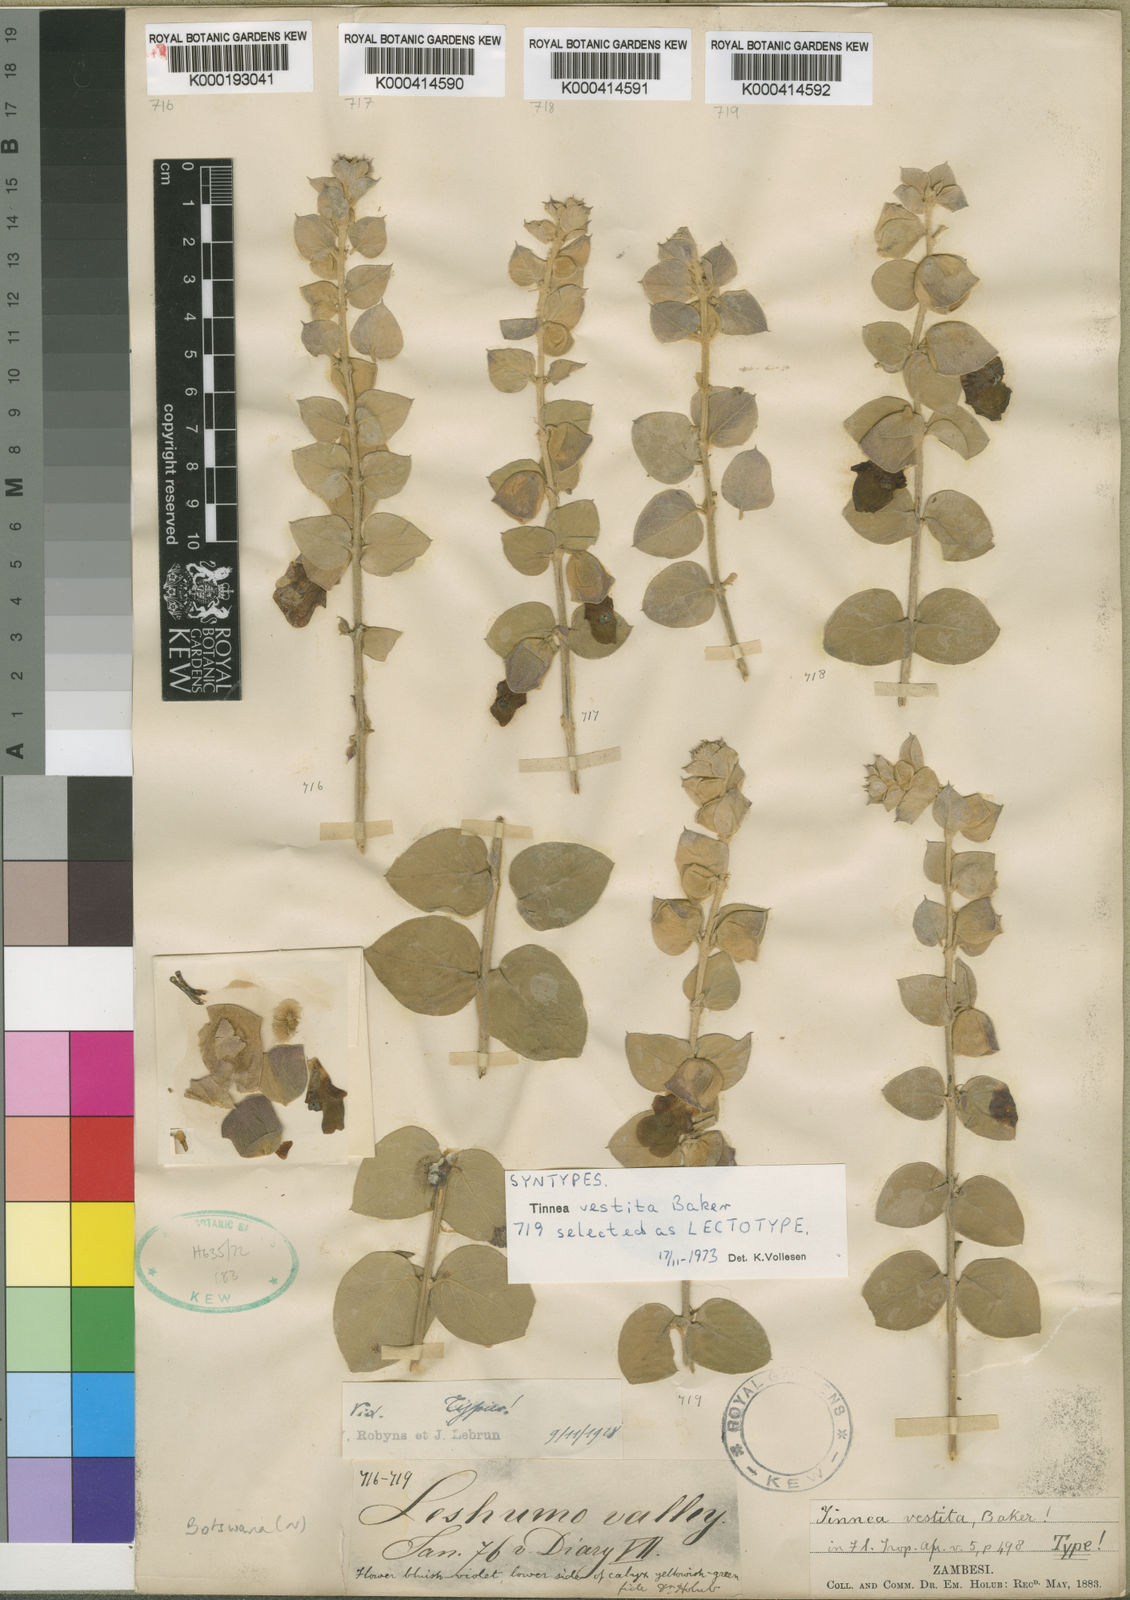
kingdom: Plantae
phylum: Tracheophyta
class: Magnoliopsida
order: Lamiales
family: Lamiaceae
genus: Tinnea
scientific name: Tinnea vestita
